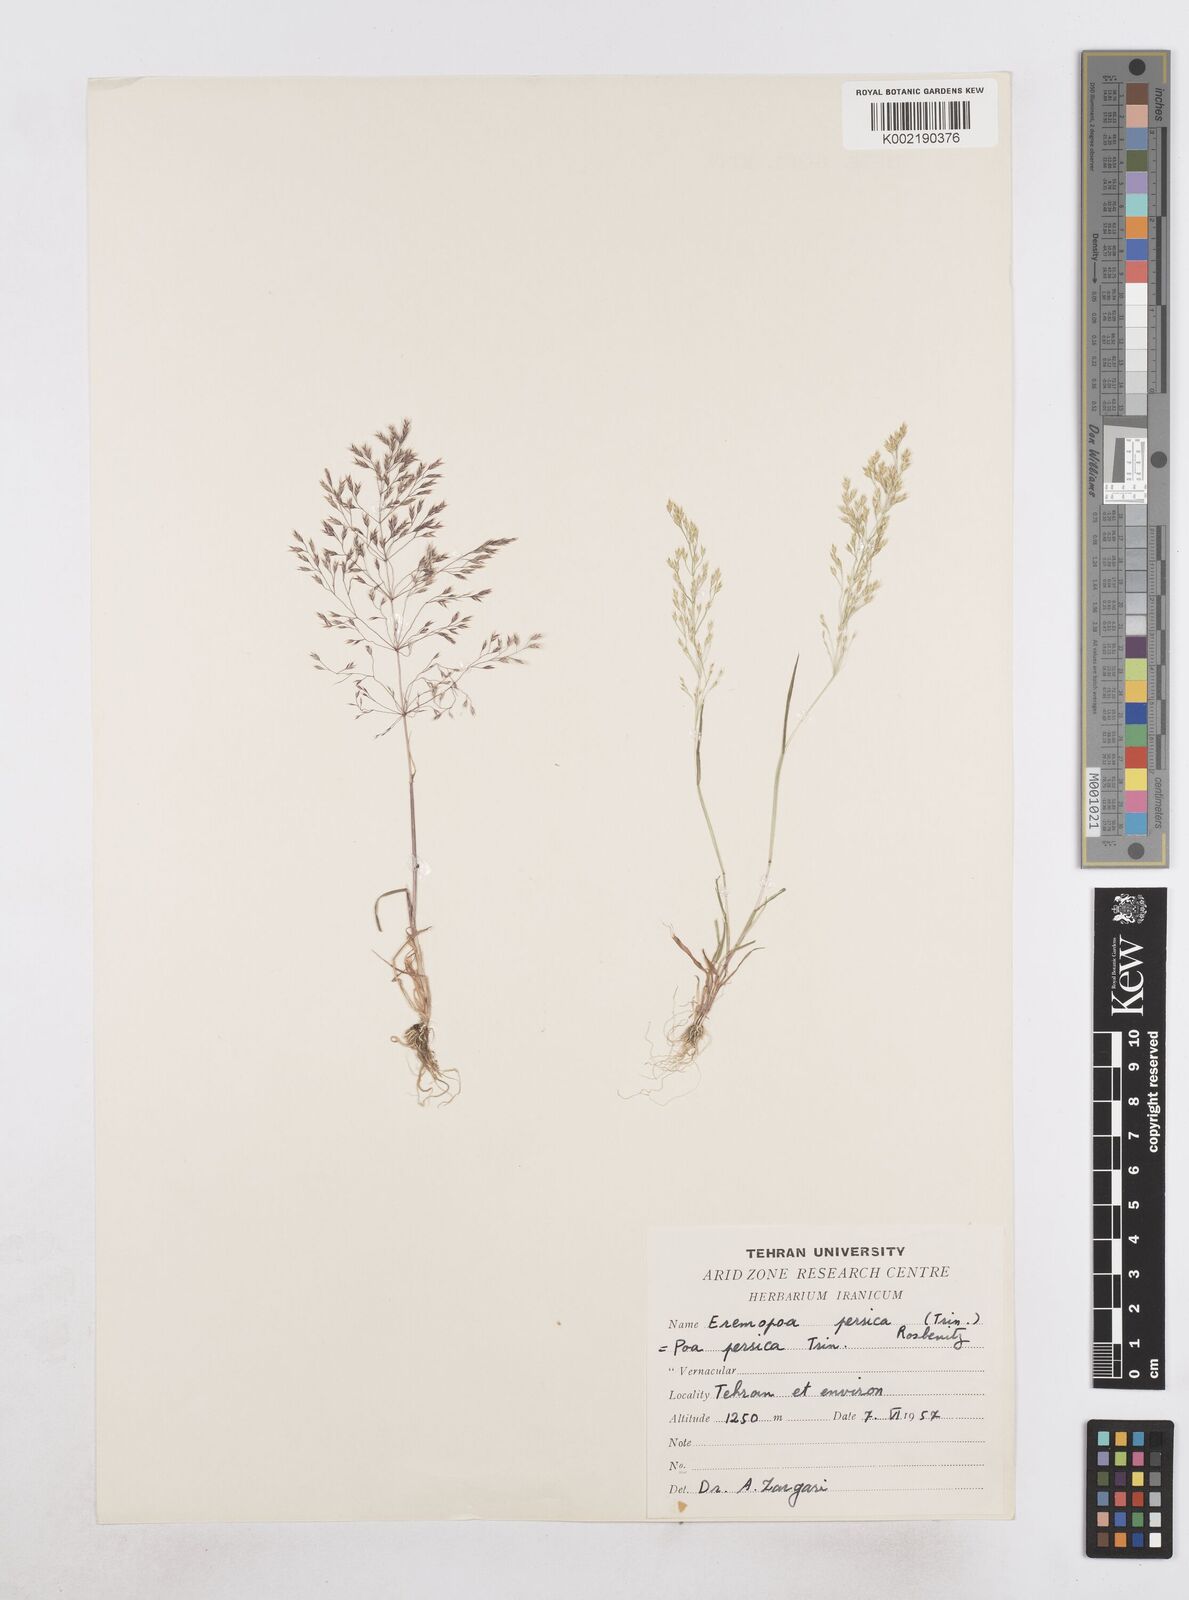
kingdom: Plantae
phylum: Tracheophyta
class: Liliopsida
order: Poales
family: Poaceae
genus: Poa
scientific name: Poa persica
